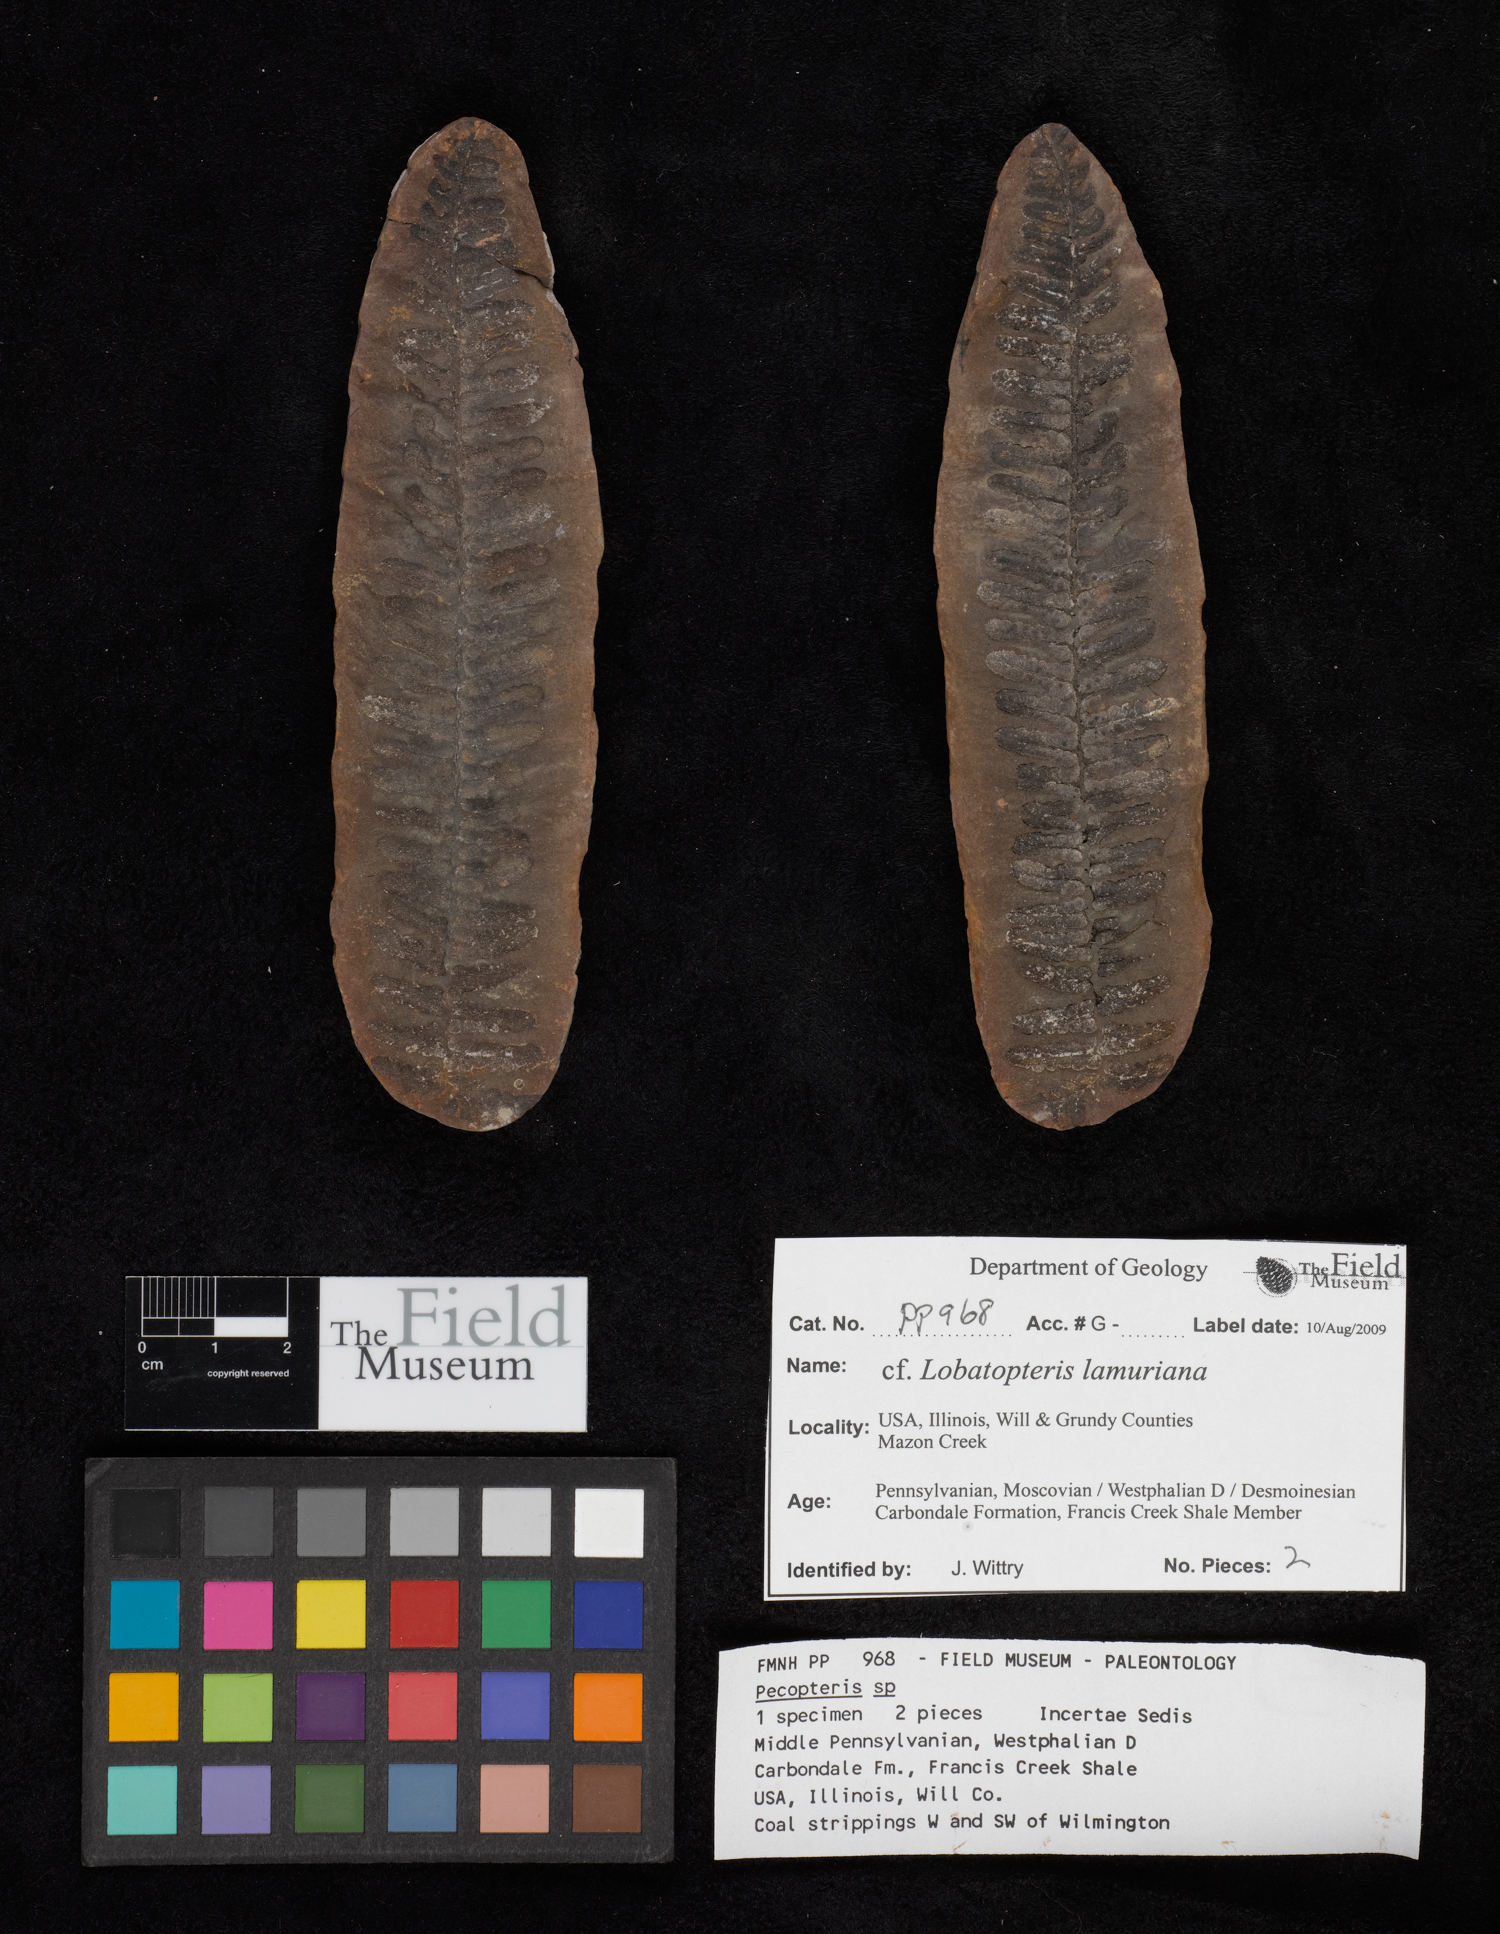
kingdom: Plantae
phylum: Tracheophyta
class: Polypodiopsida
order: Marattiales
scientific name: Marattiales
